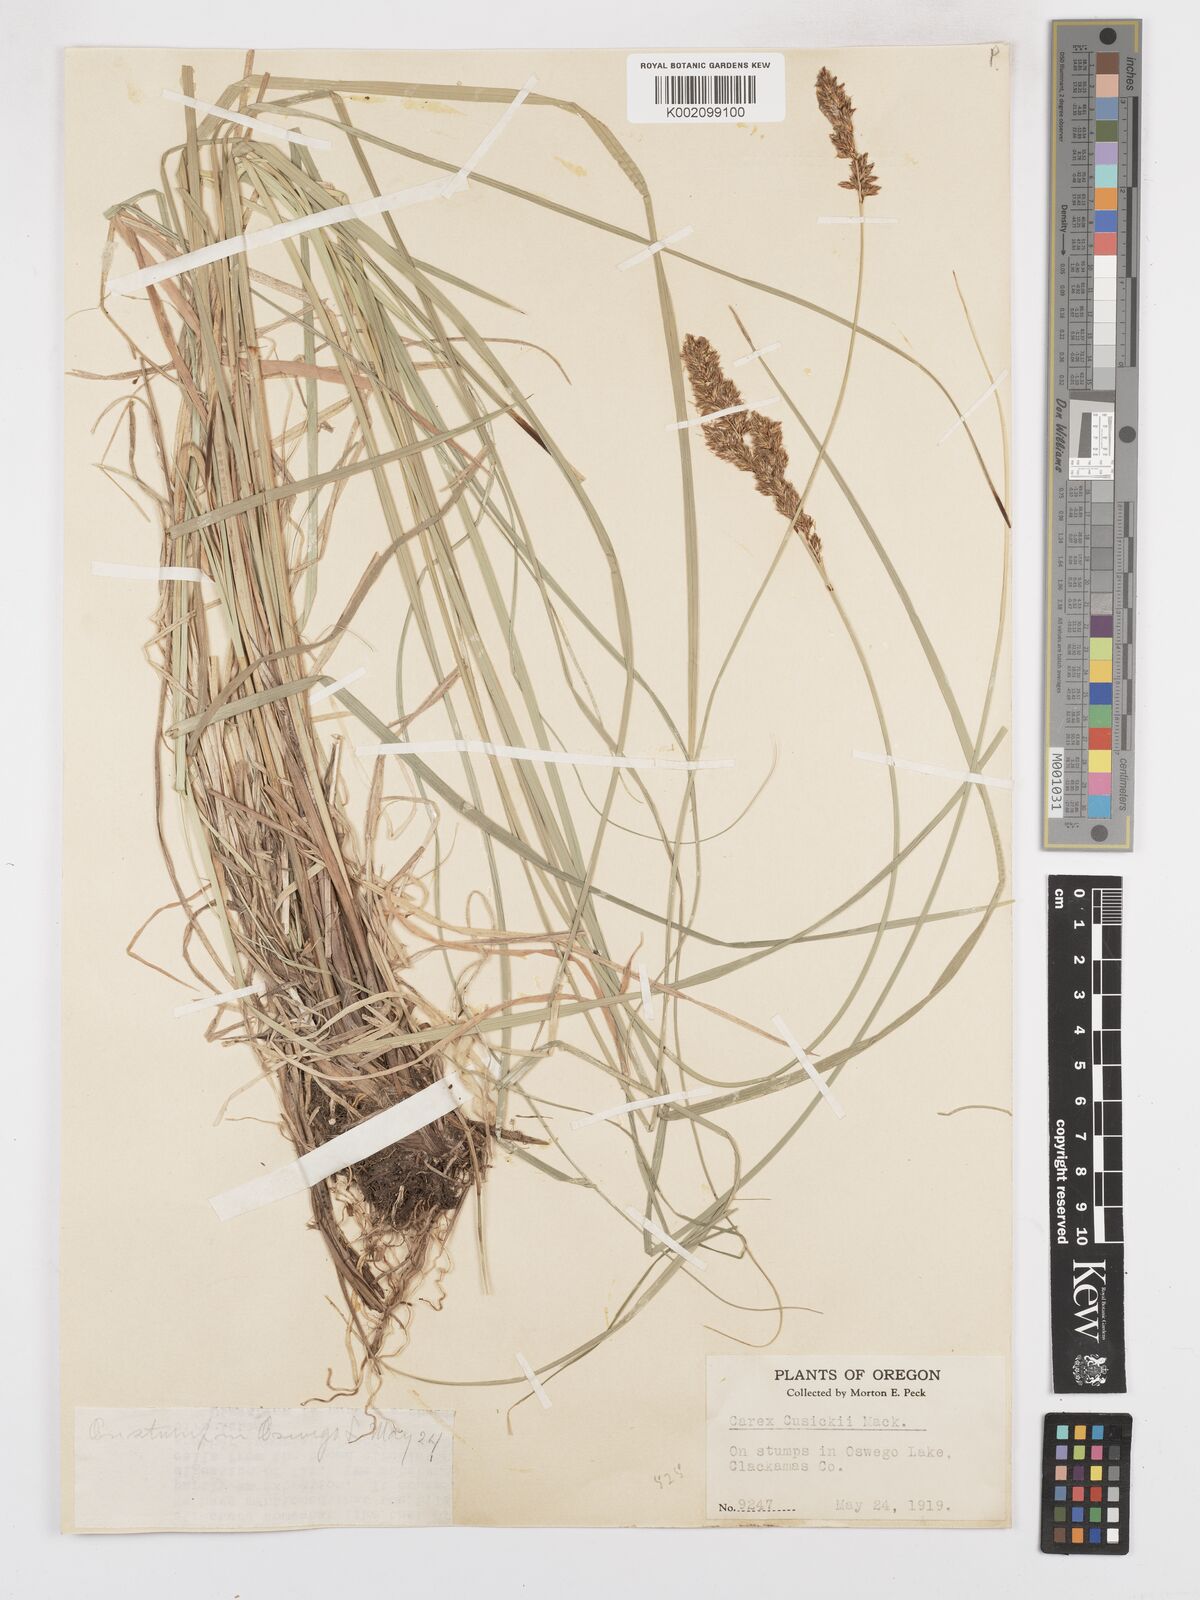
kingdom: Plantae
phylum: Tracheophyta
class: Liliopsida
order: Poales
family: Cyperaceae
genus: Carex
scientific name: Carex cusickii
